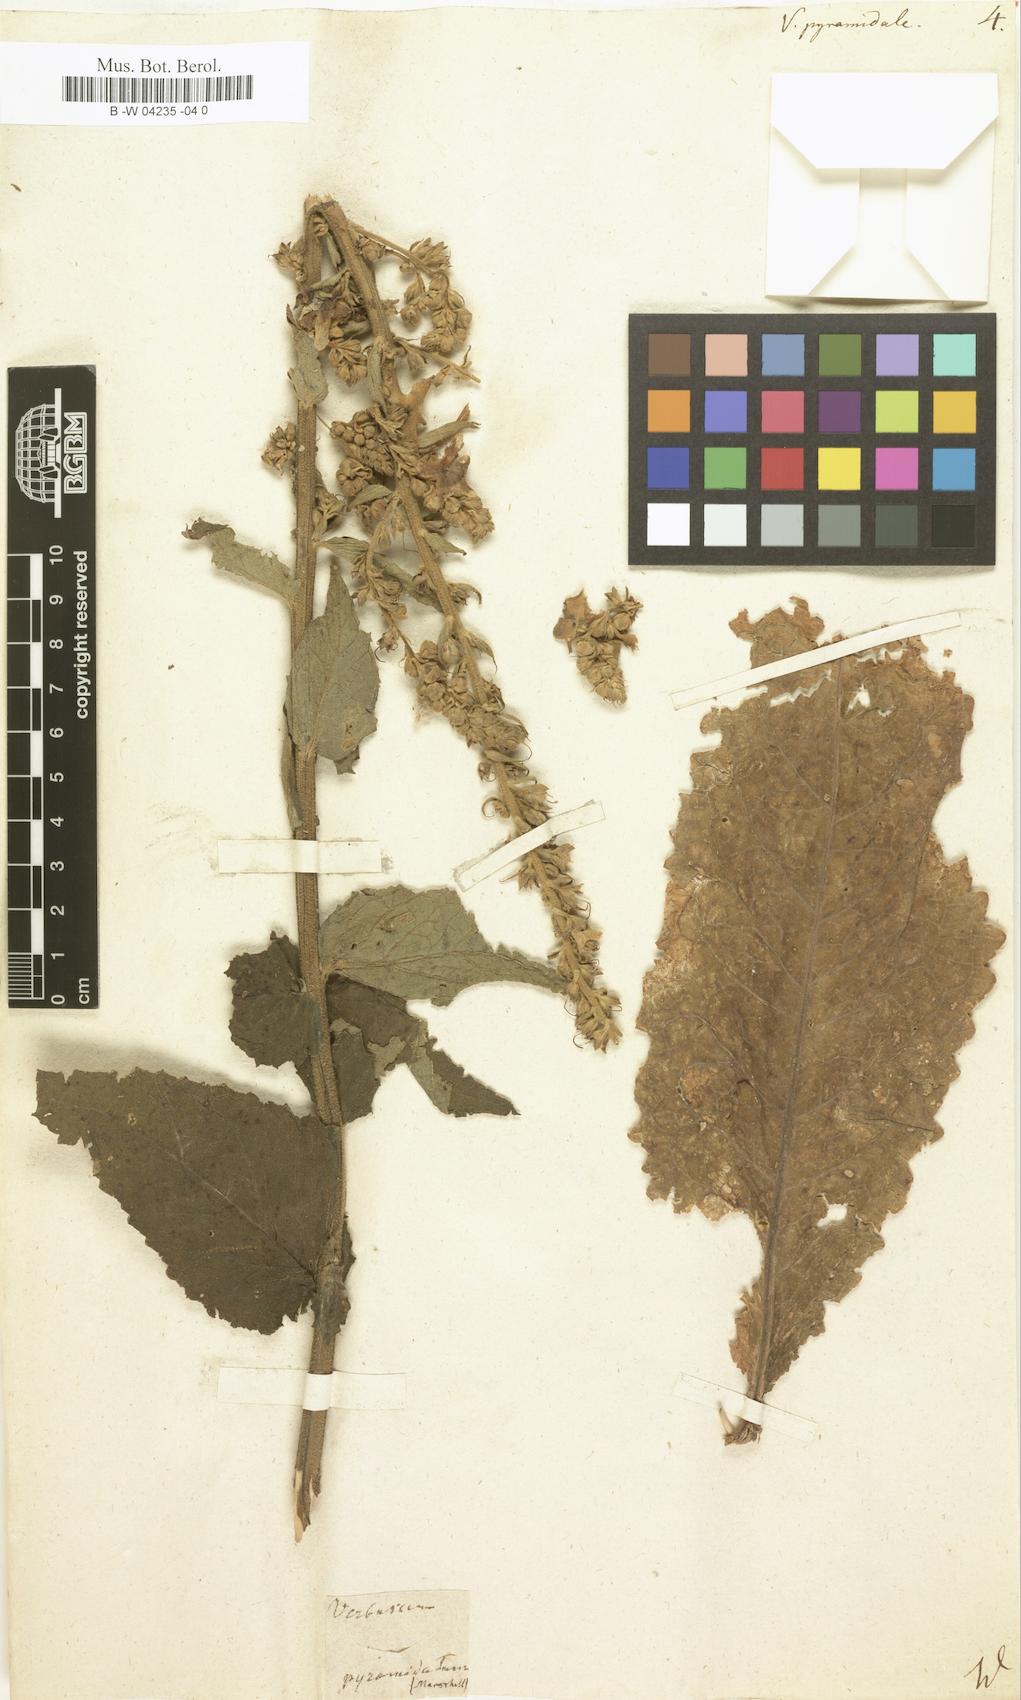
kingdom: Plantae
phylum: Tracheophyta
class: Magnoliopsida
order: Lamiales
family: Scrophulariaceae
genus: Verbascum
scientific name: Verbascum
